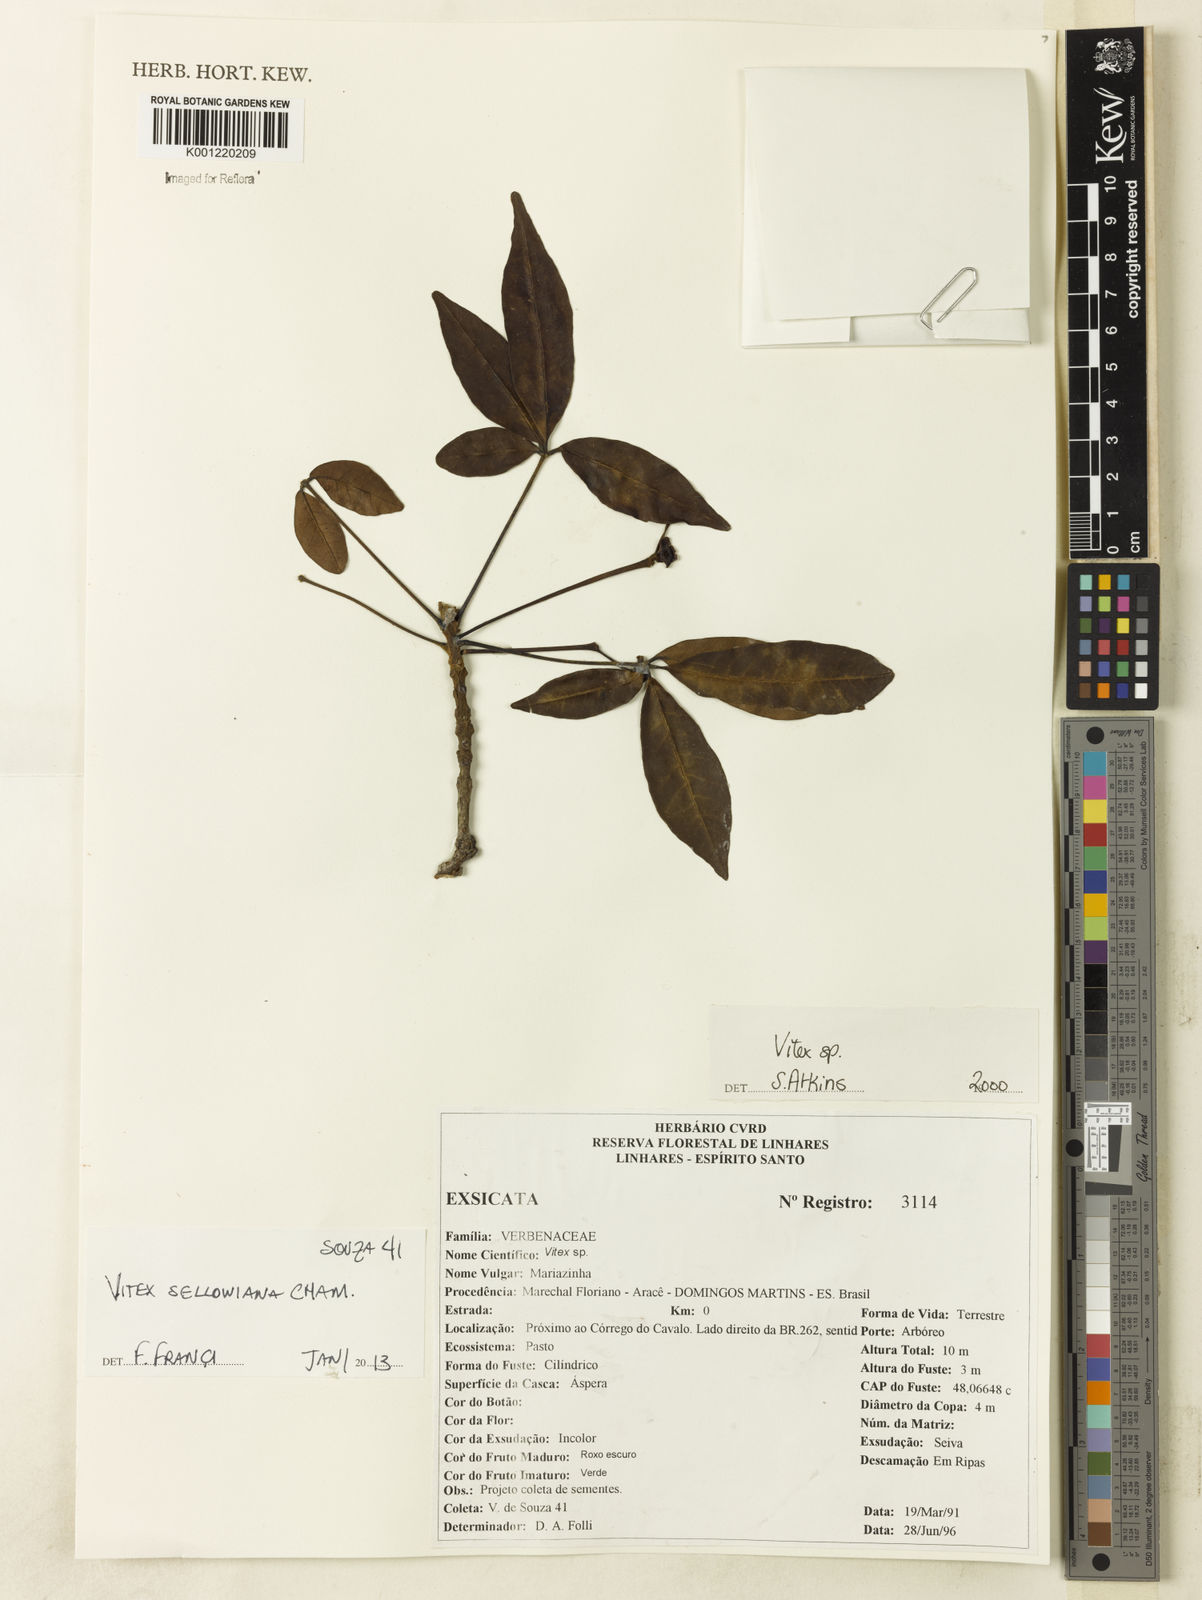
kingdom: Plantae
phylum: Tracheophyta
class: Magnoliopsida
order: Lamiales
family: Lamiaceae
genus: Vitex
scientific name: Vitex sellowiana
